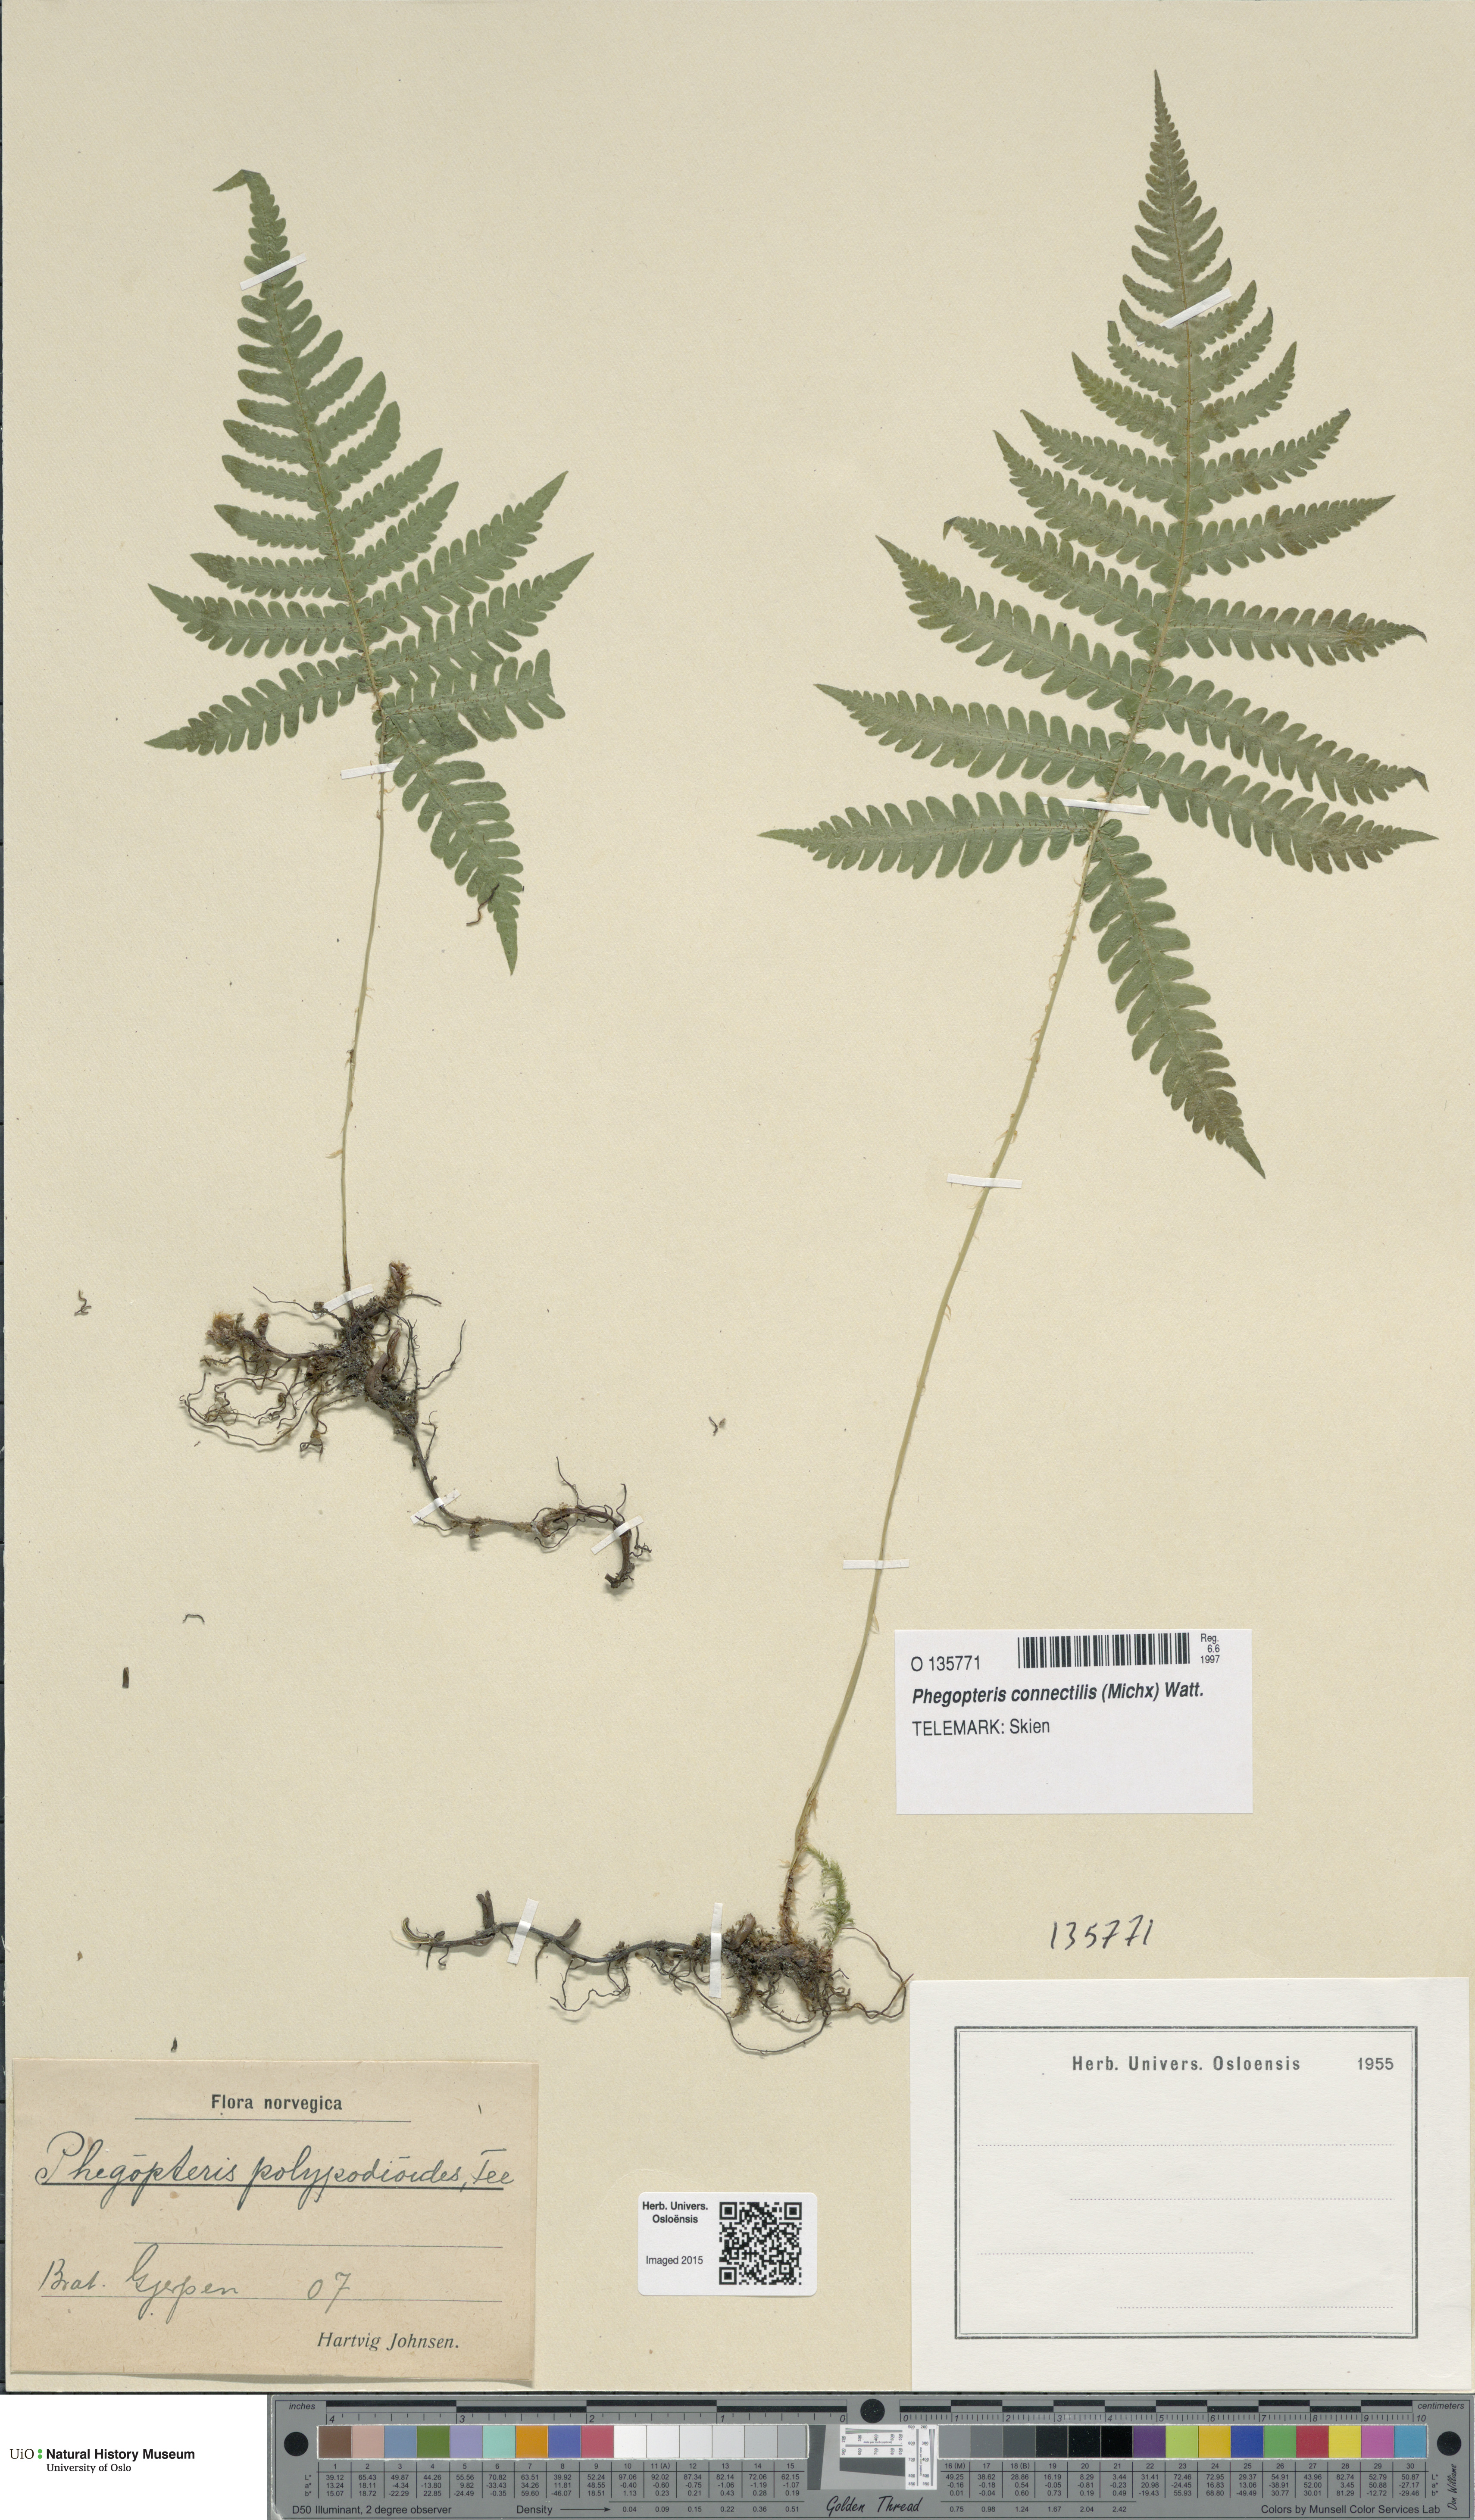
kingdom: Plantae
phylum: Tracheophyta
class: Polypodiopsida
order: Polypodiales
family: Thelypteridaceae
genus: Phegopteris
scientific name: Phegopteris connectilis
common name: Beech fern
